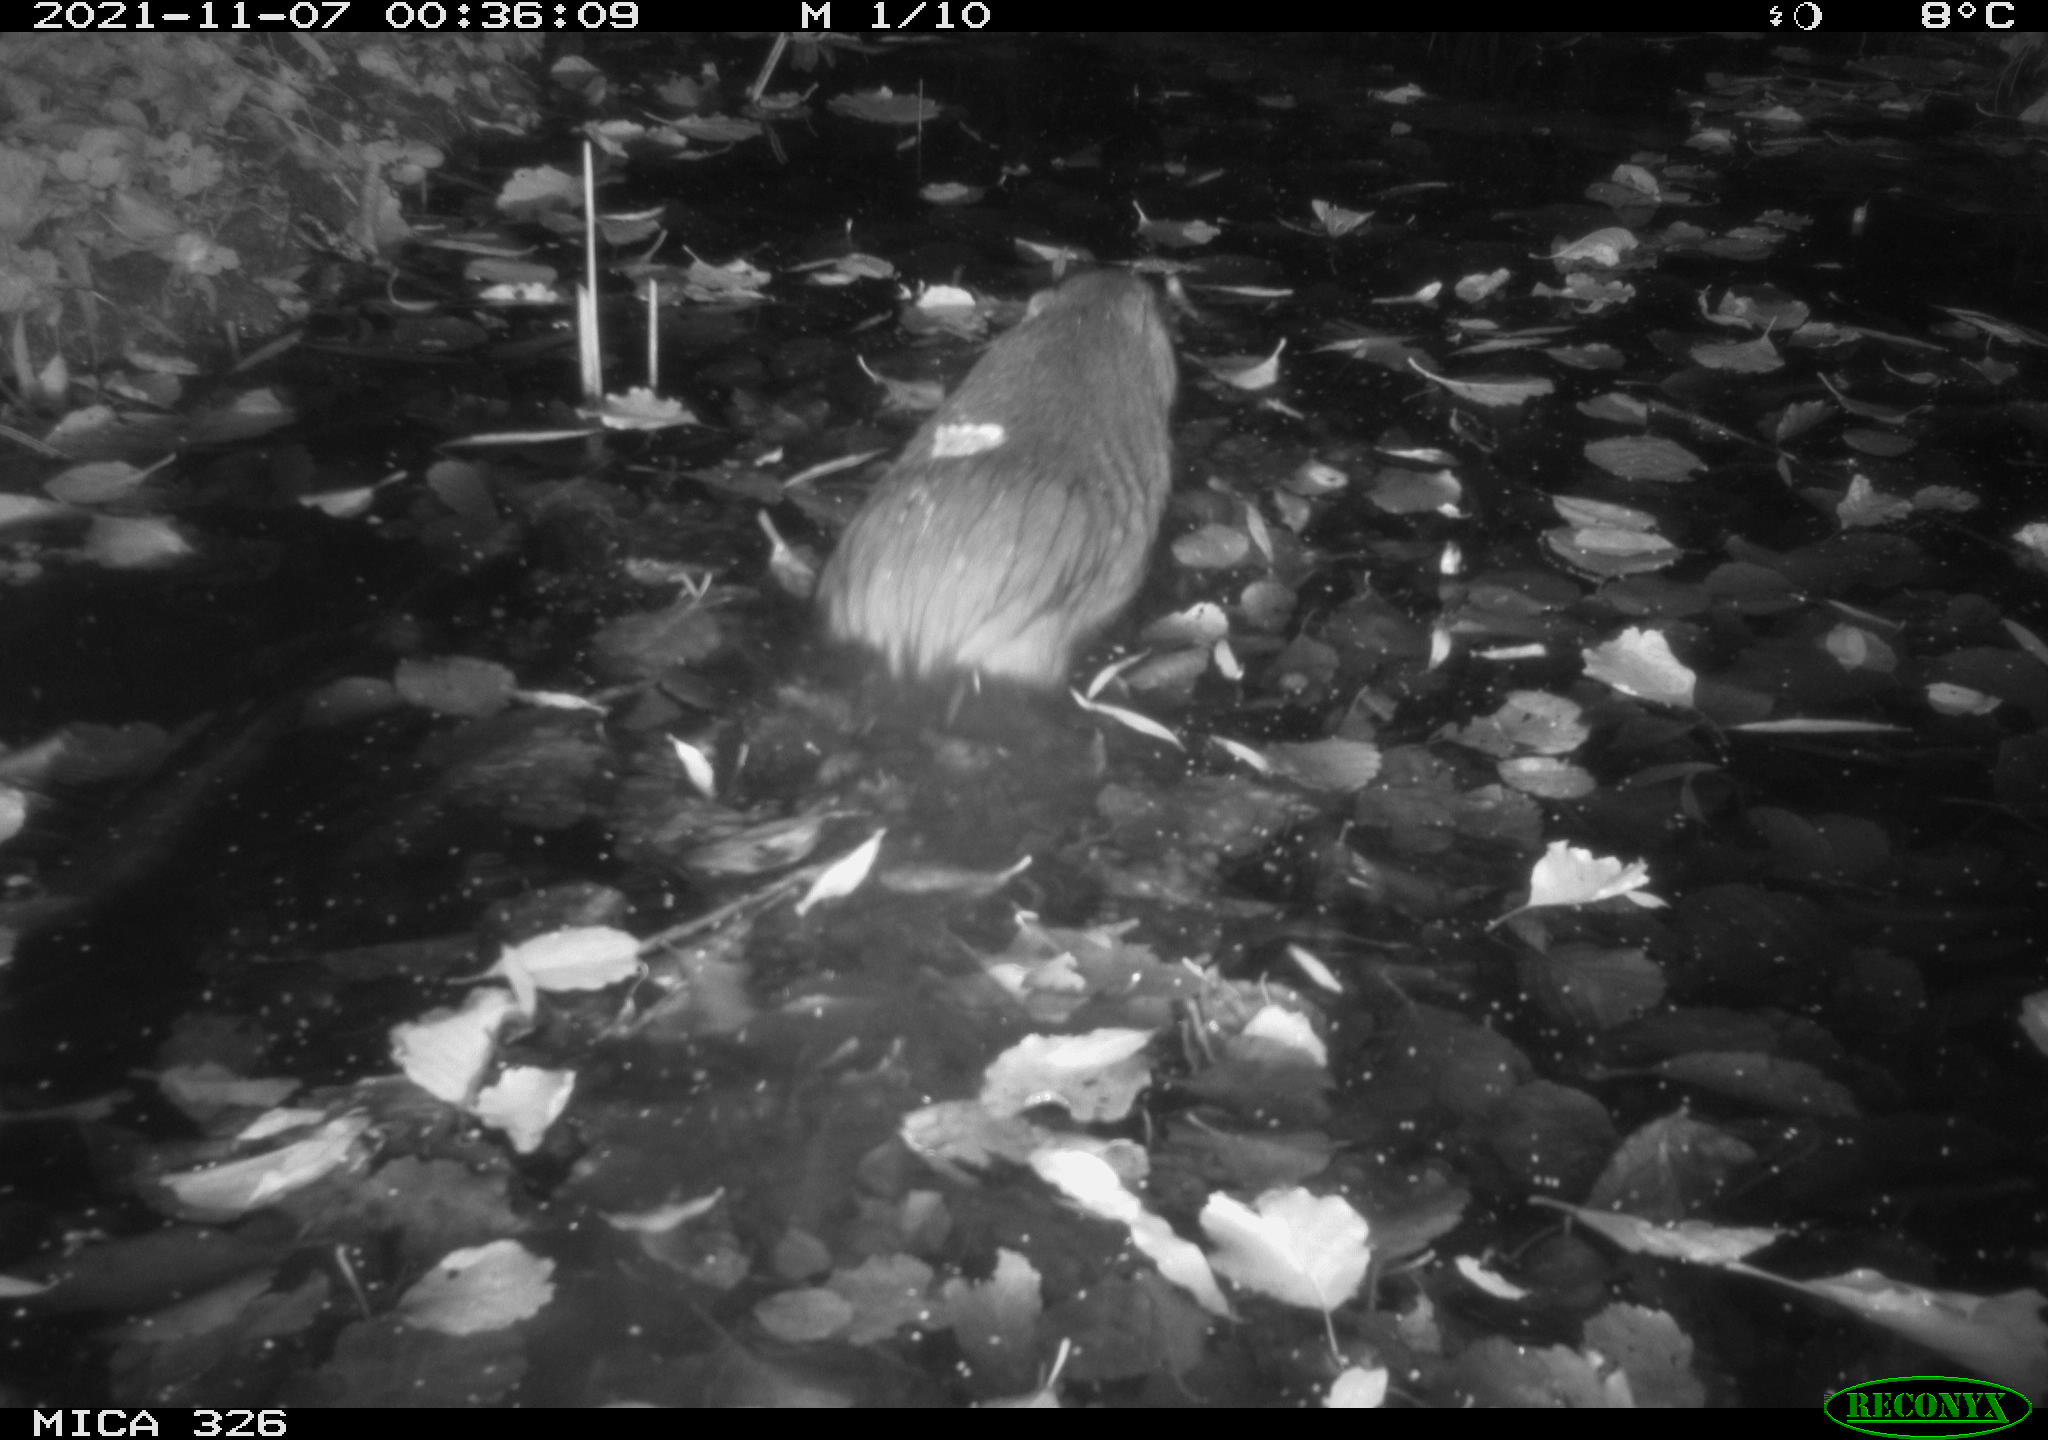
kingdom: Animalia
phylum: Chordata
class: Mammalia
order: Rodentia
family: Myocastoridae
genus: Myocastor
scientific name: Myocastor coypus
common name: Coypu
